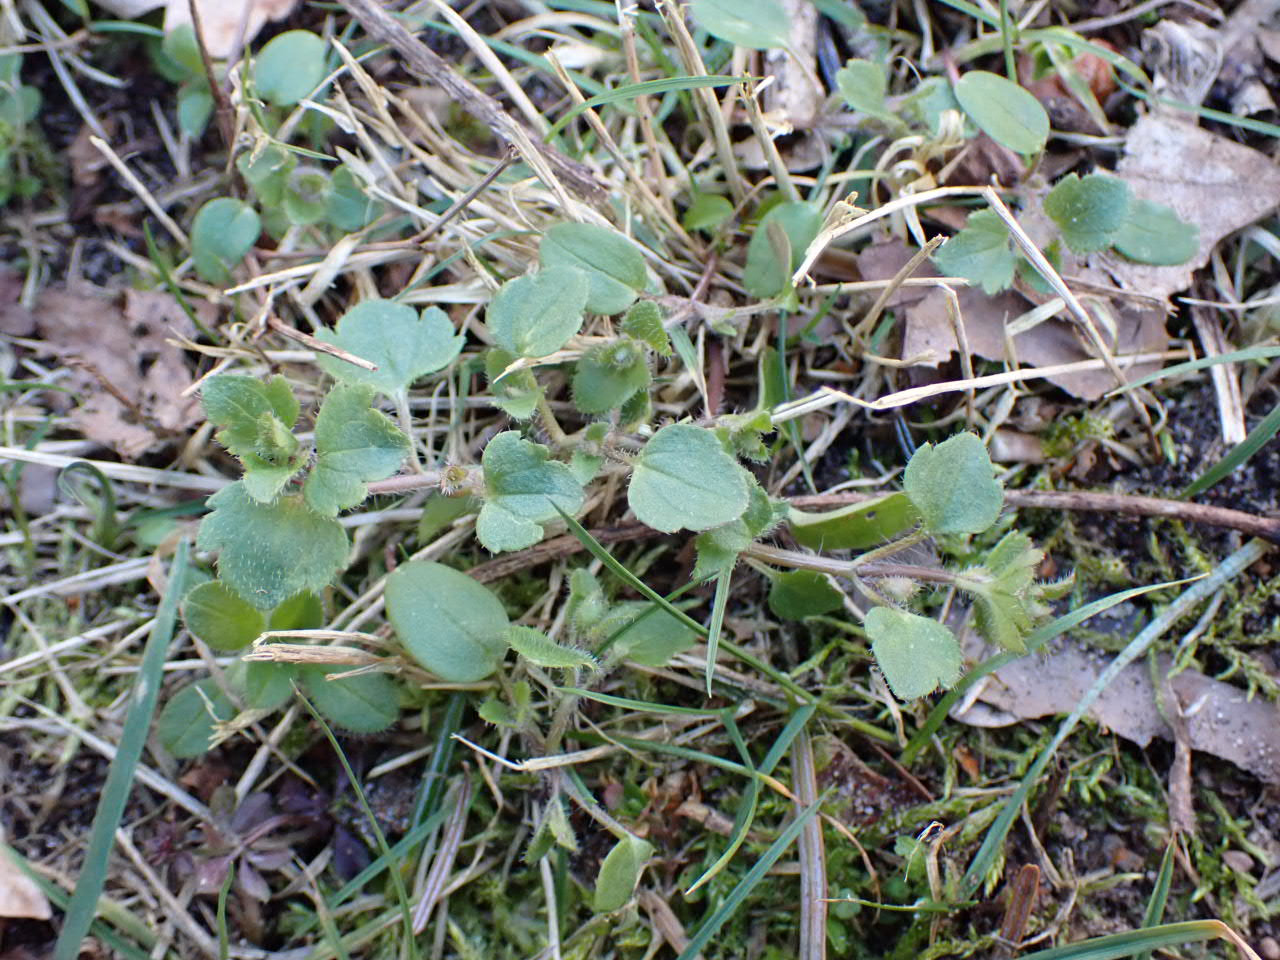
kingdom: Plantae
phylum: Tracheophyta
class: Magnoliopsida
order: Lamiales
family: Plantaginaceae
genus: Veronica
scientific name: Veronica hederifolia
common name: Vedbend-ærenpris
